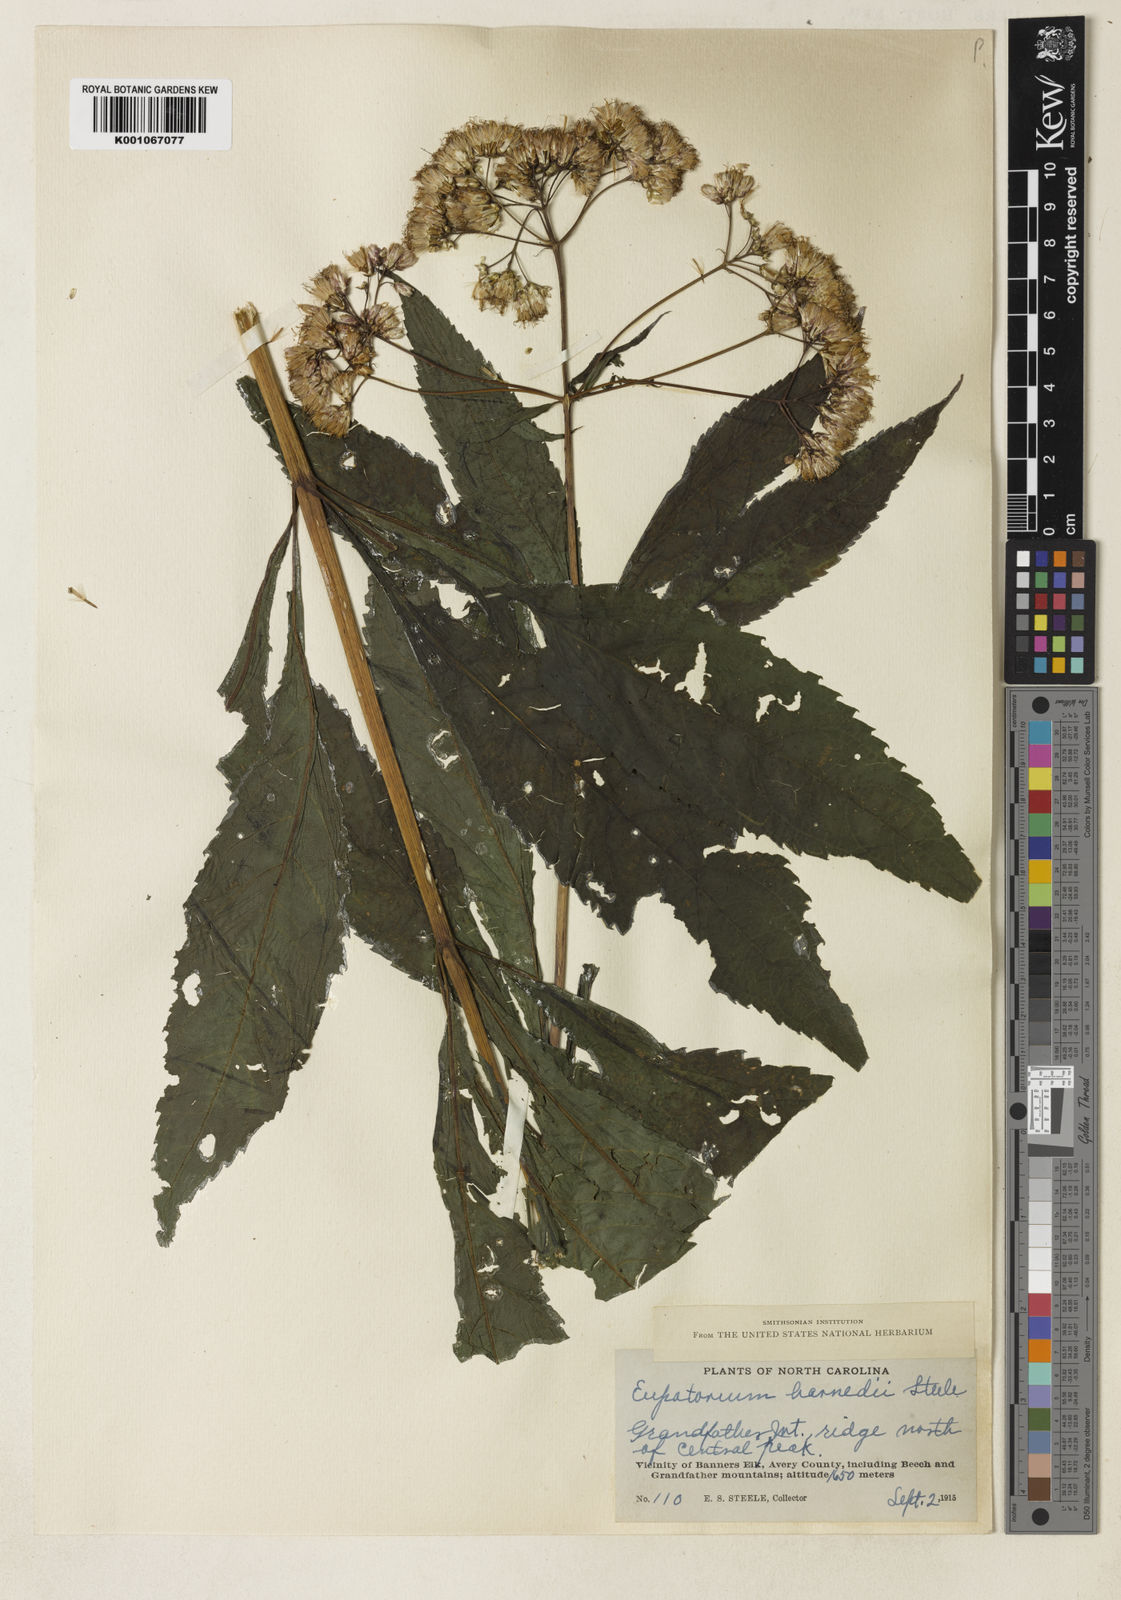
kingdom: Plantae
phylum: Tracheophyta
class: Magnoliopsida
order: Asterales
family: Asteraceae
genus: Eutrochium
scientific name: Eutrochium purpureum
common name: Gravelroot
